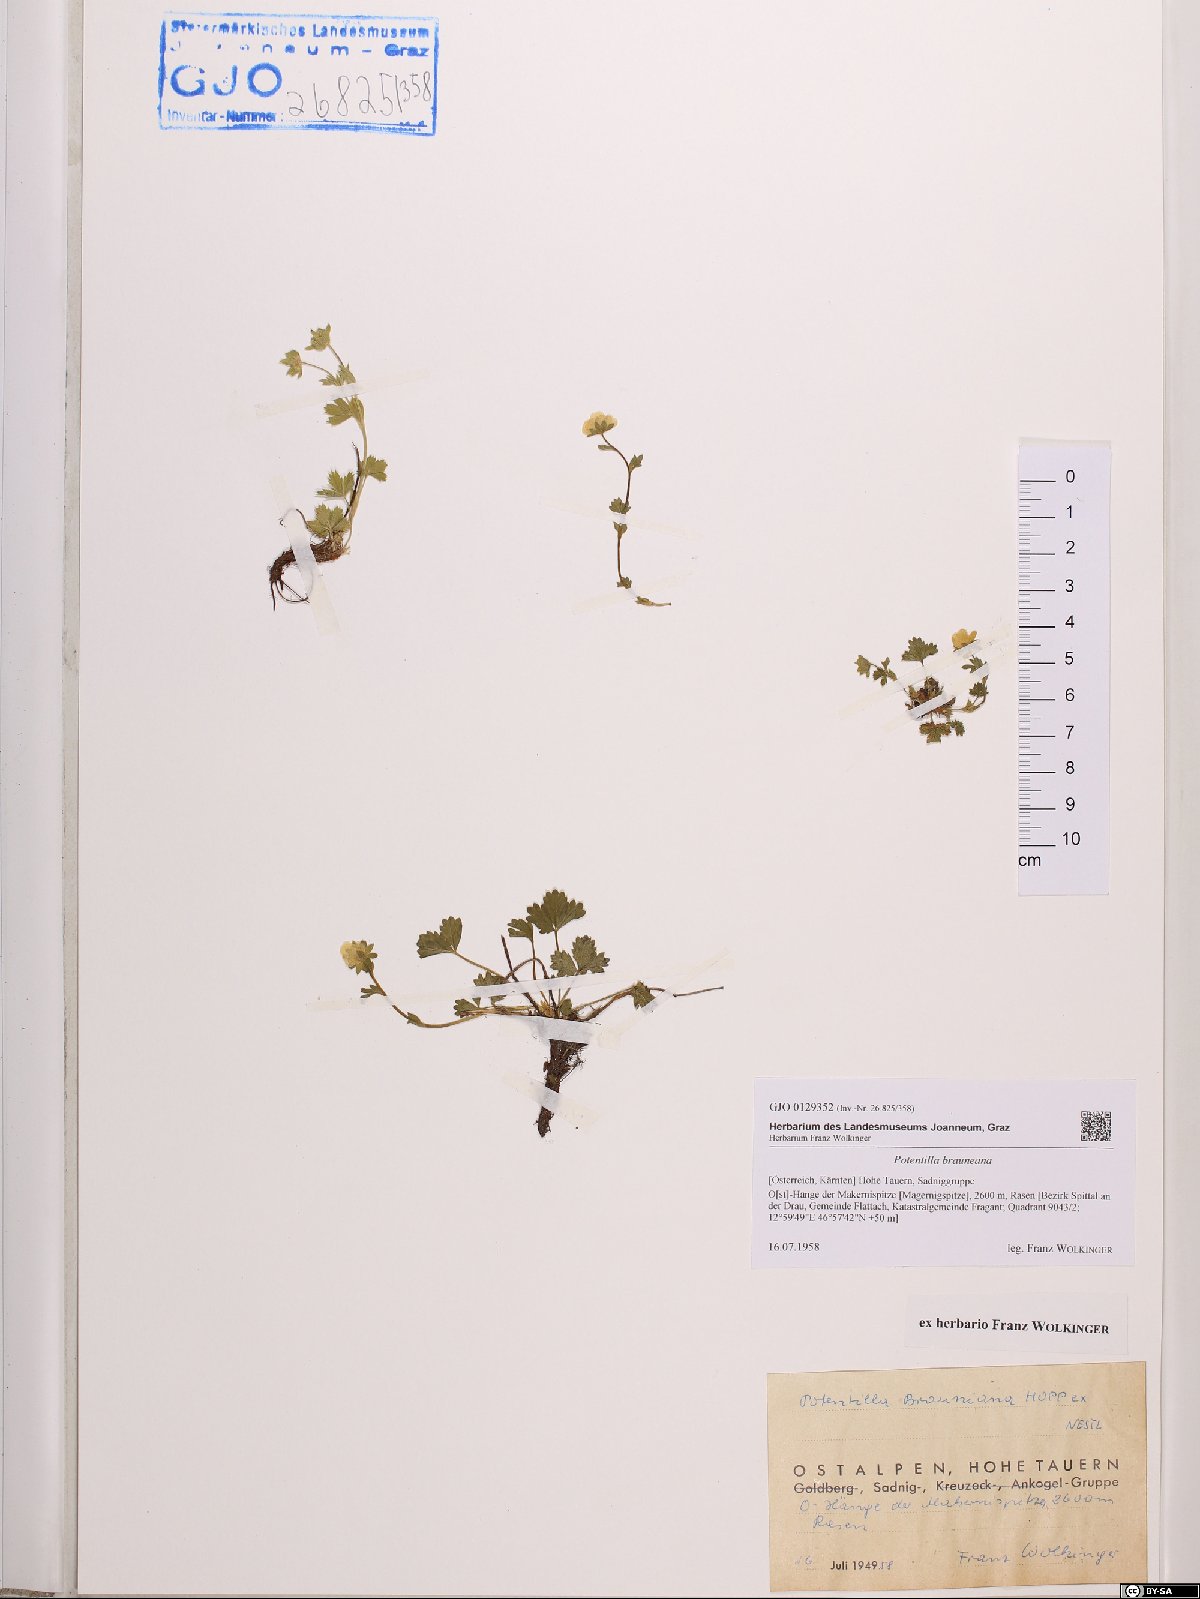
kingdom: Plantae
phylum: Tracheophyta
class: Magnoliopsida
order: Rosales
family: Rosaceae
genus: Potentilla
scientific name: Potentilla brauneana
